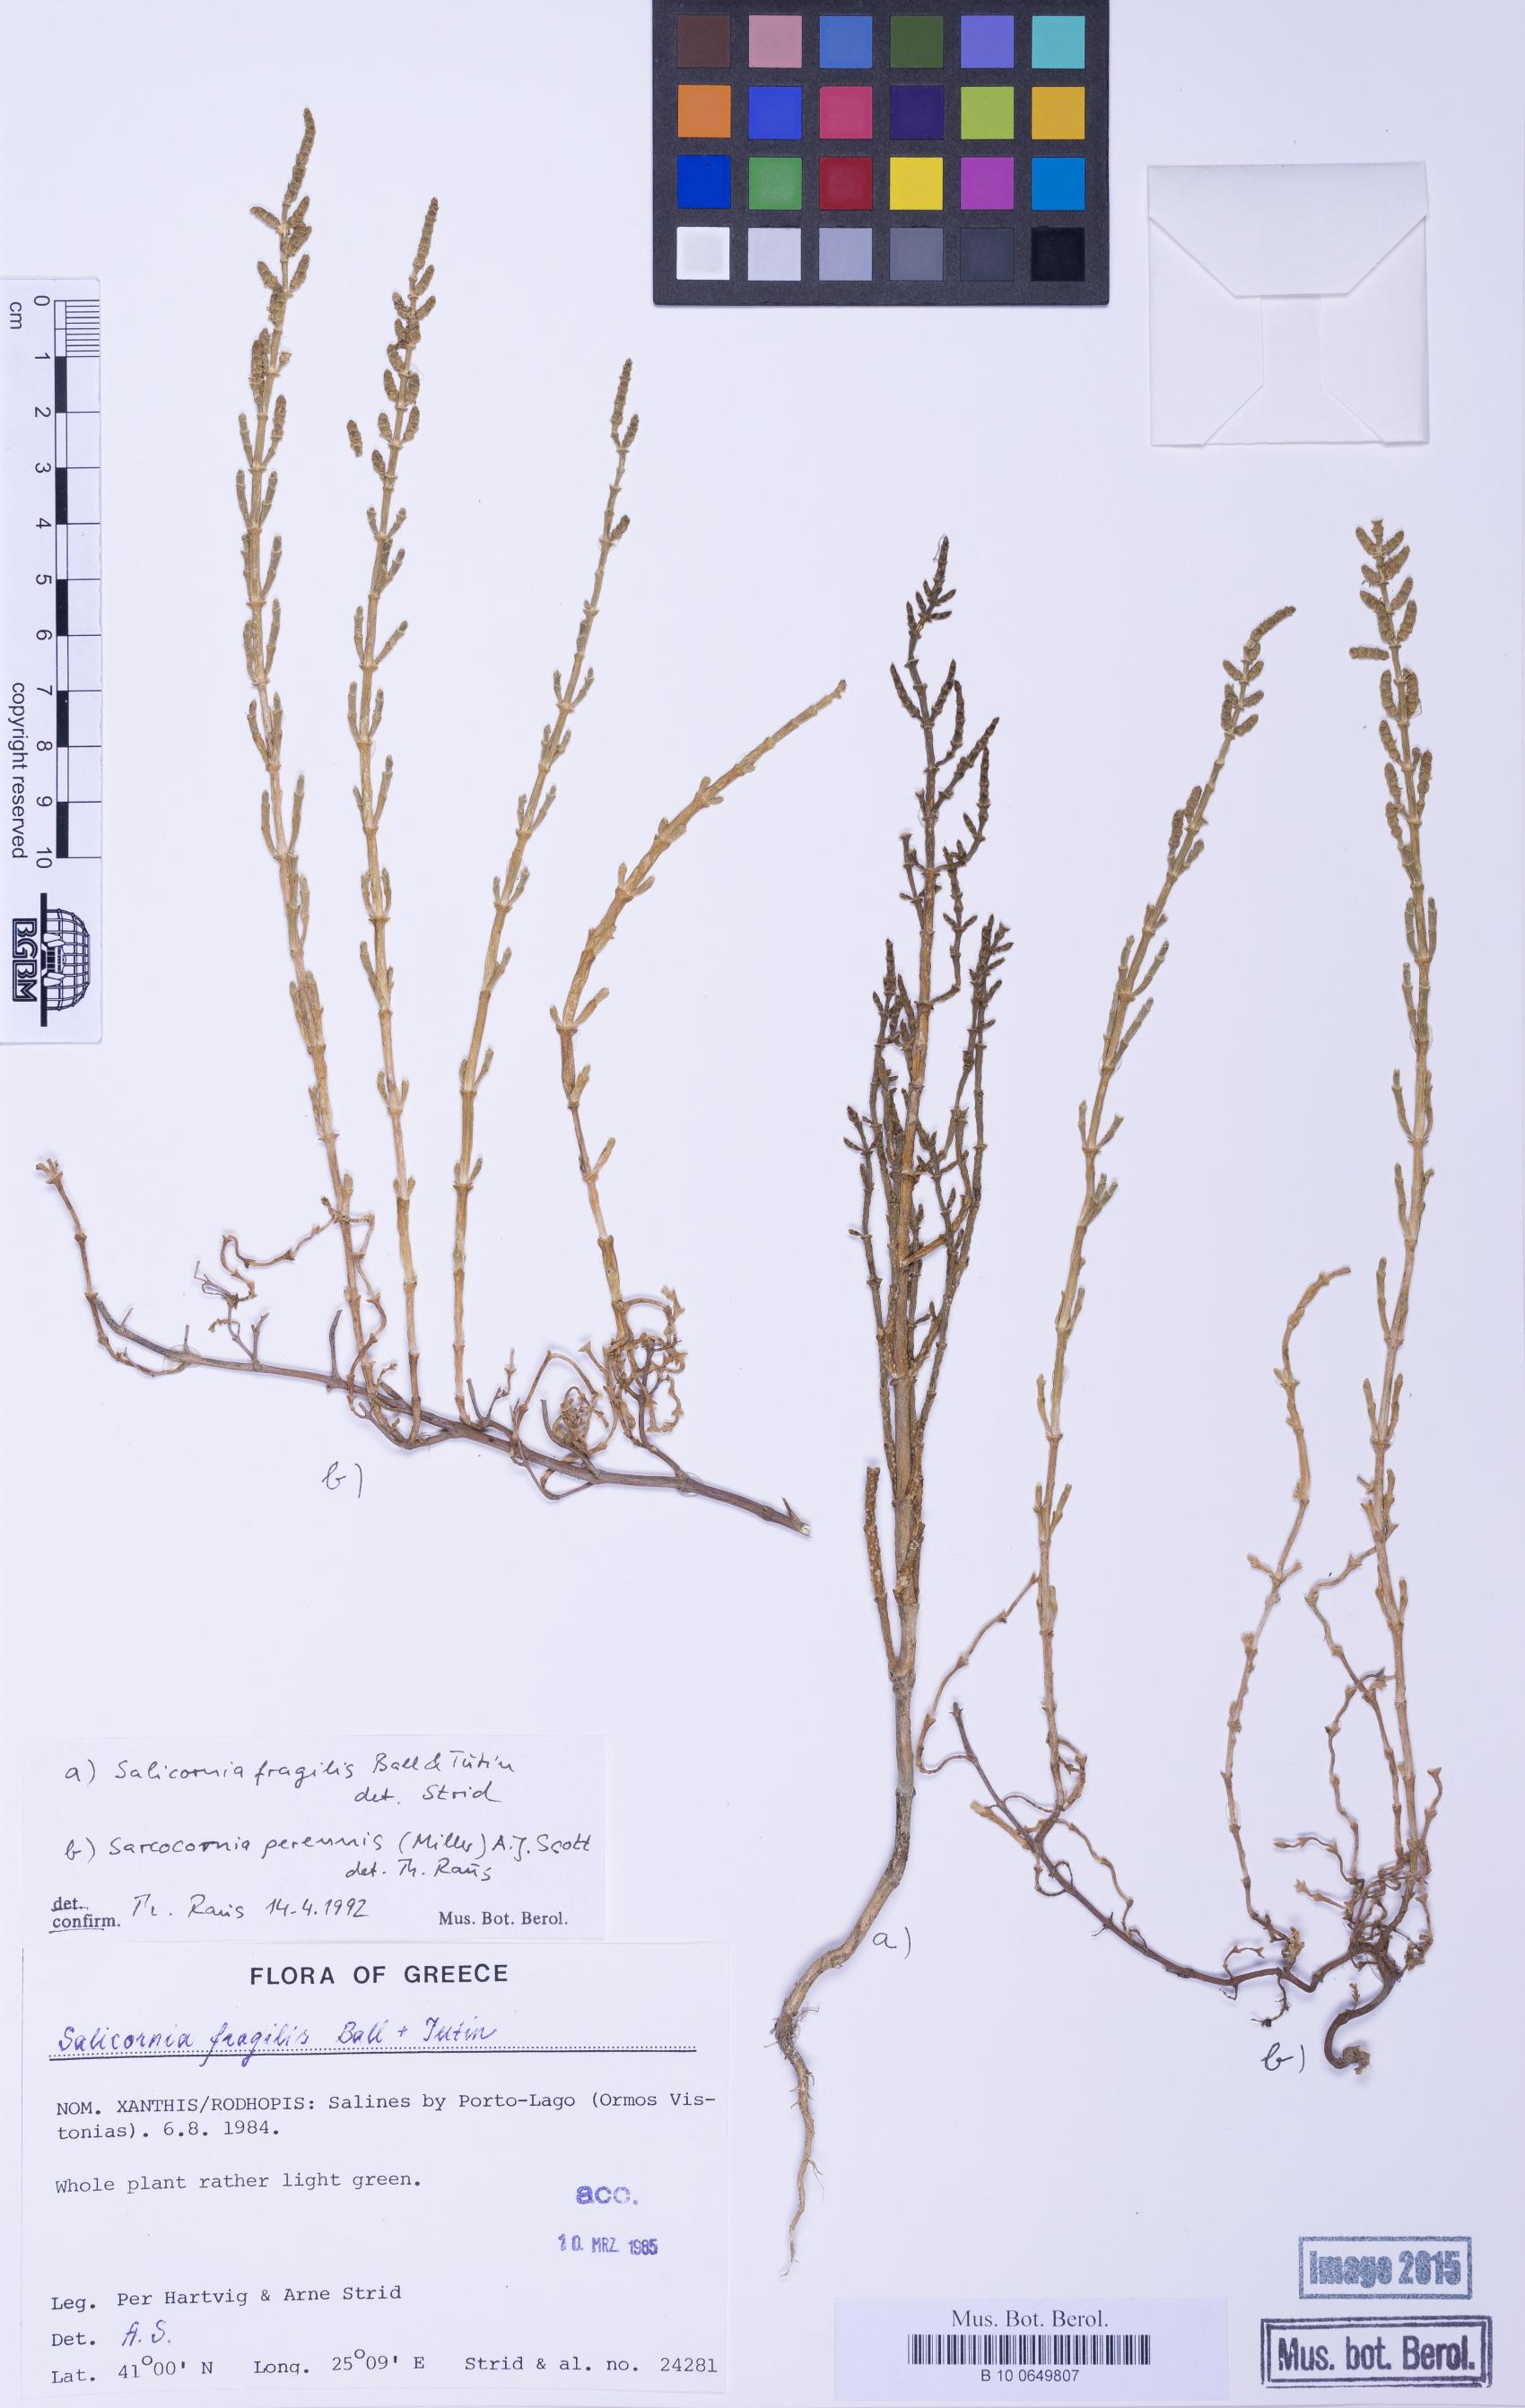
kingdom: Plantae
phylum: Tracheophyta
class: Magnoliopsida
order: Caryophyllales
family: Amaranthaceae
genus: Salicornia
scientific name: Salicornia procumbens
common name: Long-spiked glasswort
